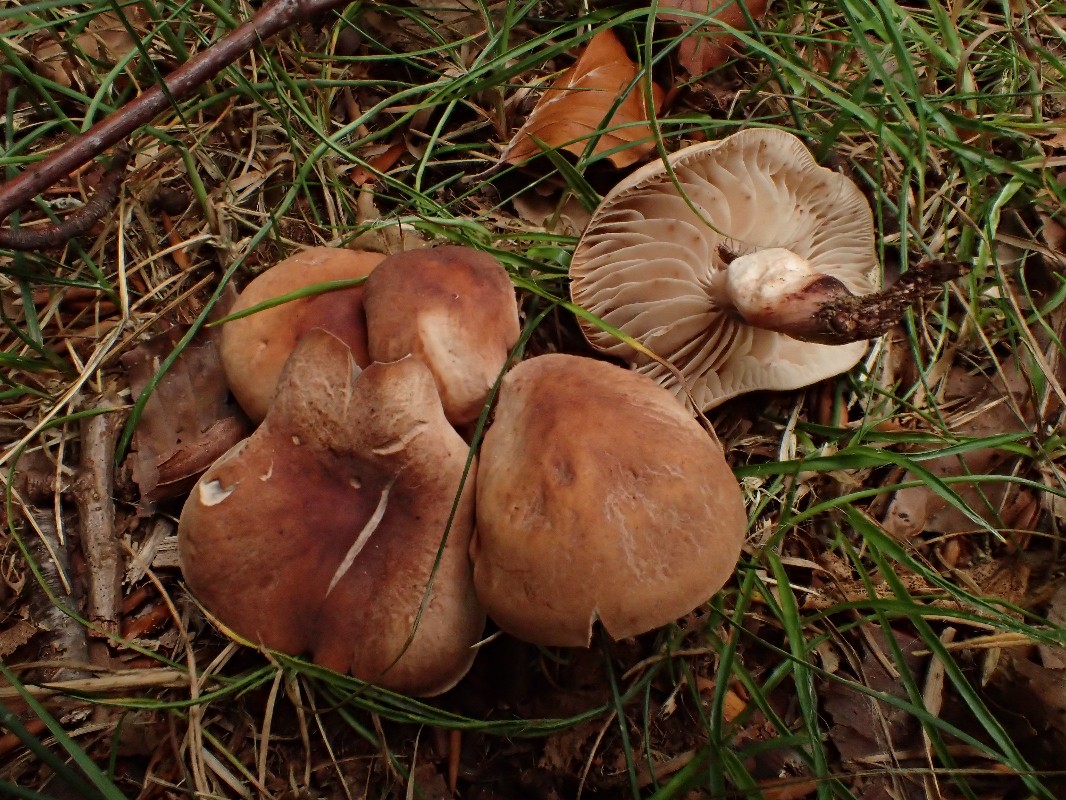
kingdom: Fungi
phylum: Basidiomycota
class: Agaricomycetes
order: Agaricales
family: Omphalotaceae
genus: Gymnopus
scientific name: Gymnopus fusipes
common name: tenstokket fladhat
